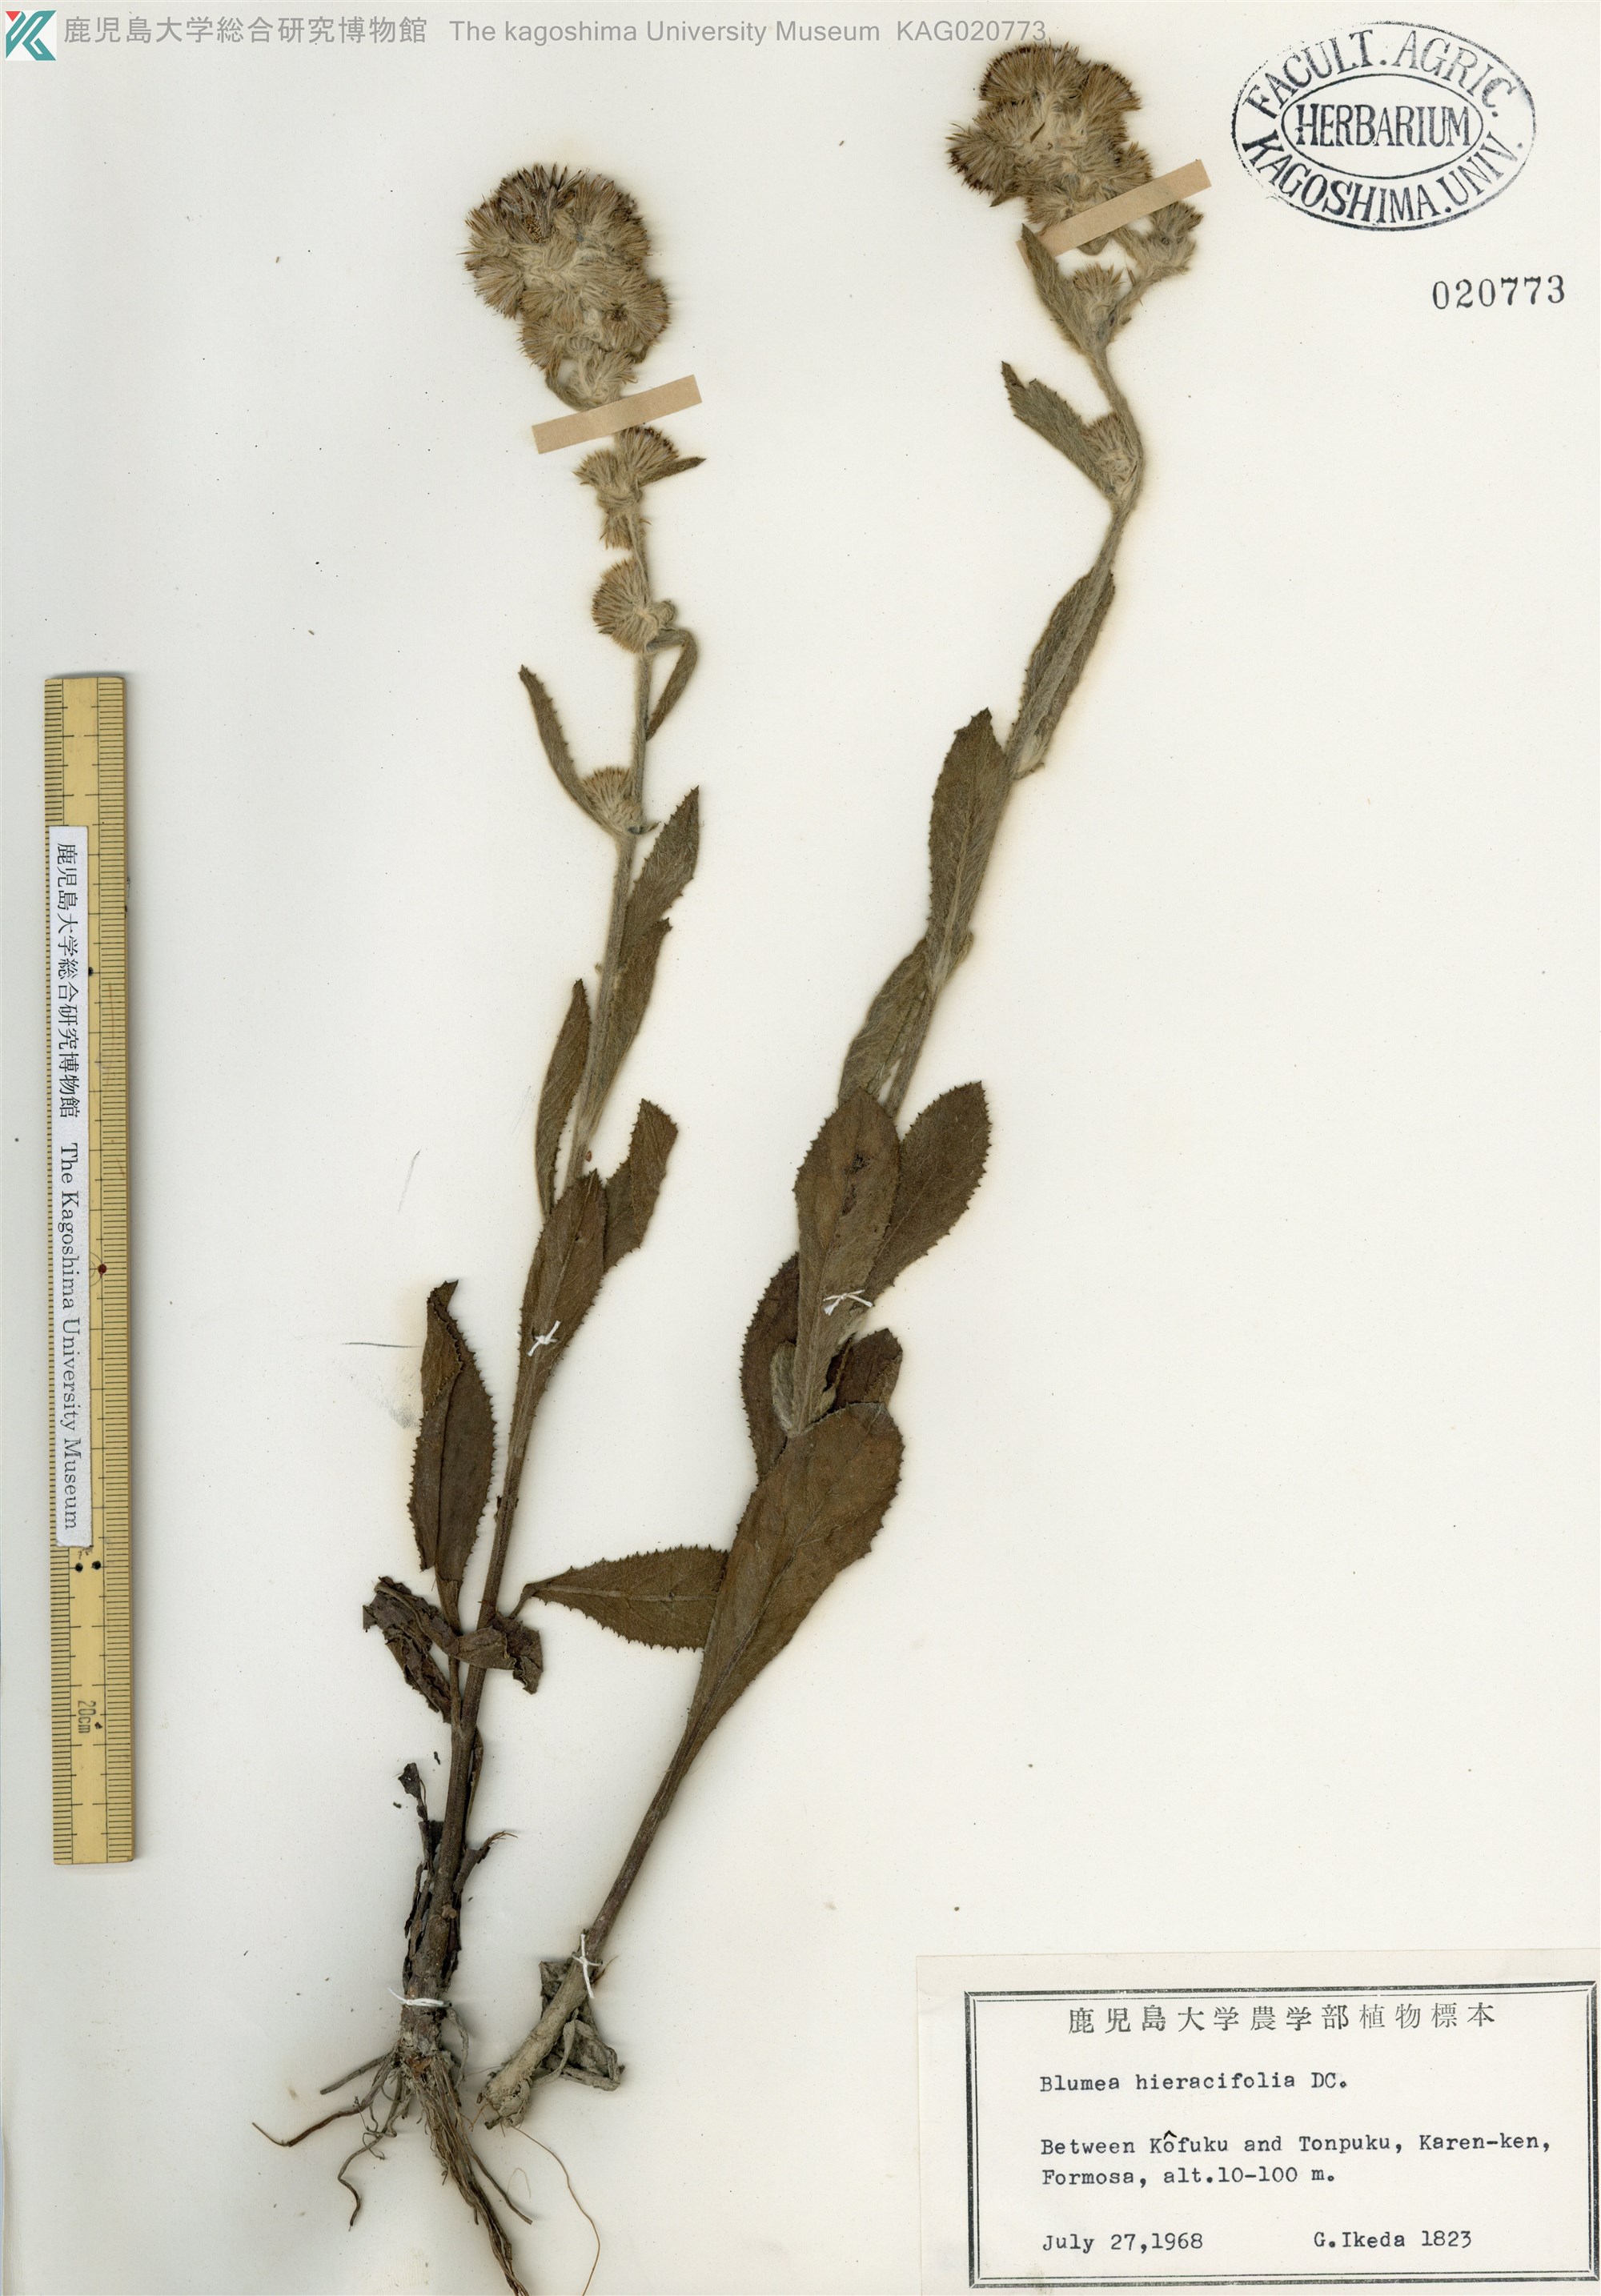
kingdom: Plantae
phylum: Tracheophyta
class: Magnoliopsida
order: Asterales
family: Asteraceae
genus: Blumea
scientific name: Blumea hieraciifolia
